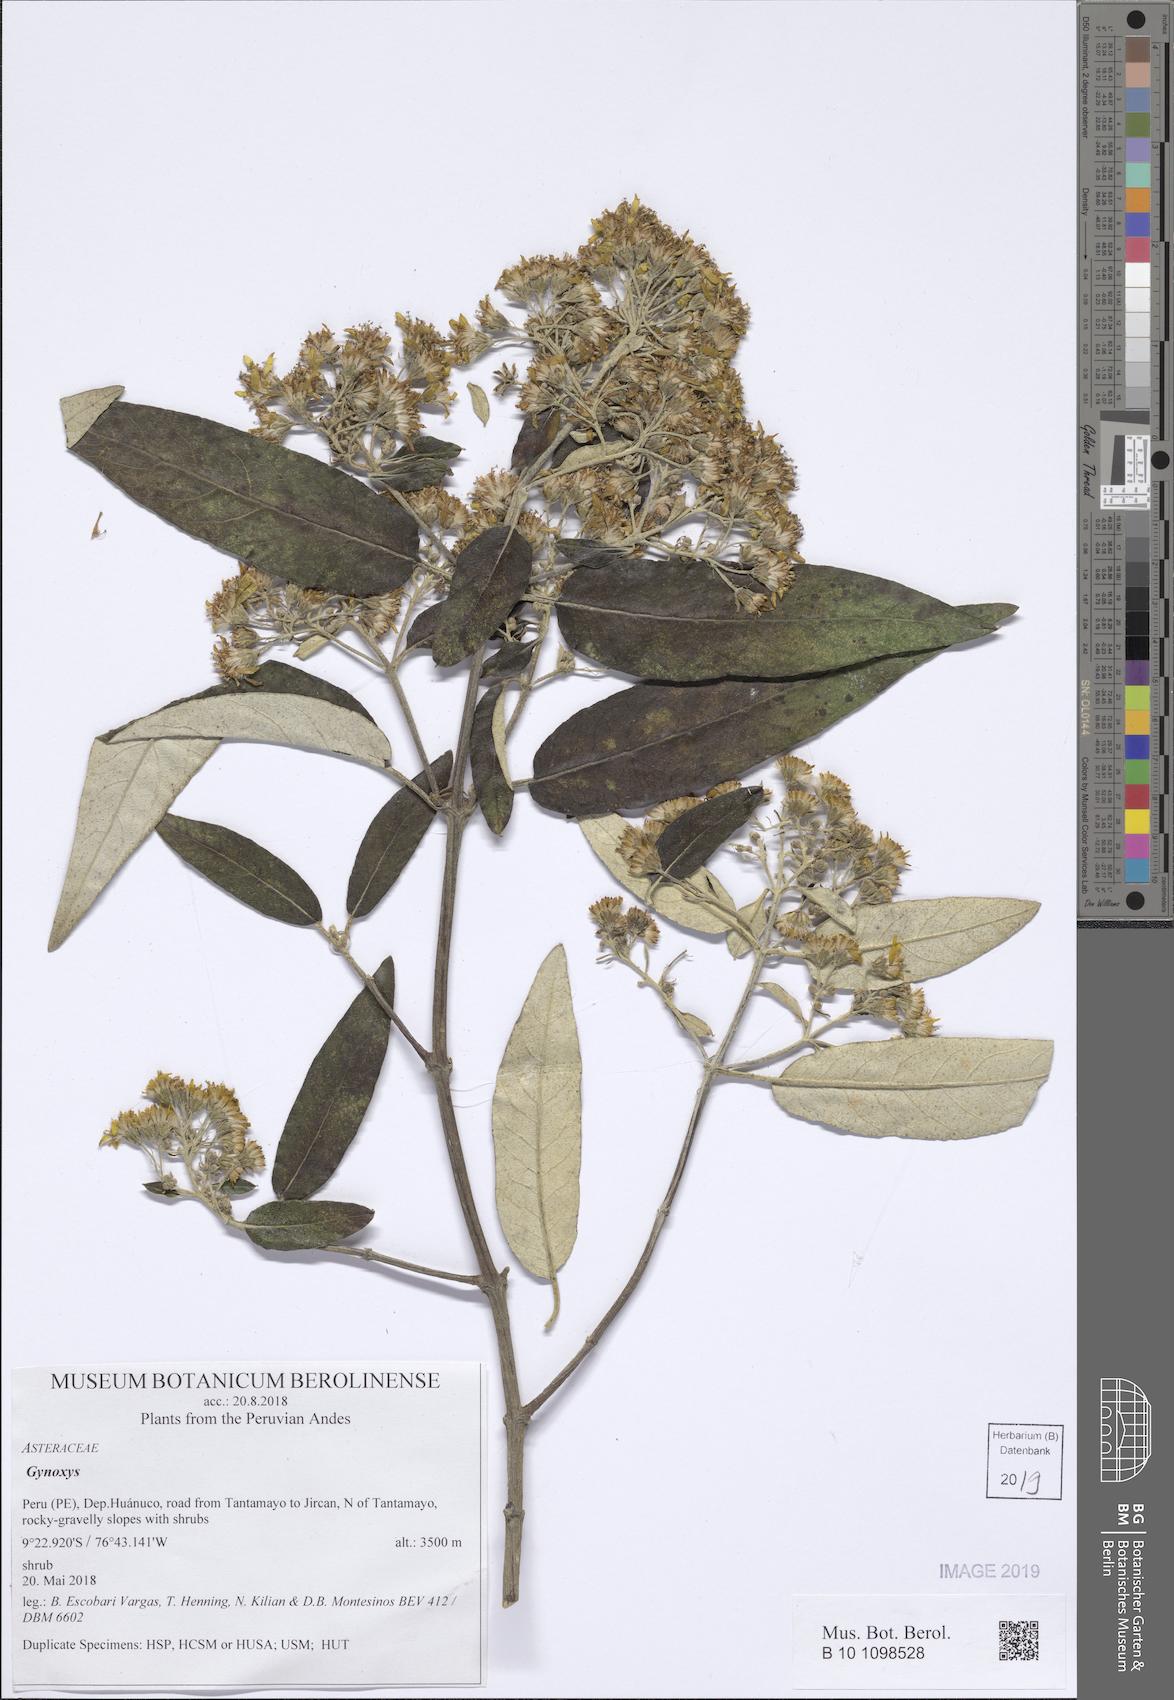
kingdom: Plantae
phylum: Tracheophyta
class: Magnoliopsida
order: Asterales
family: Asteraceae
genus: Gynoxys
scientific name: Gynoxys
